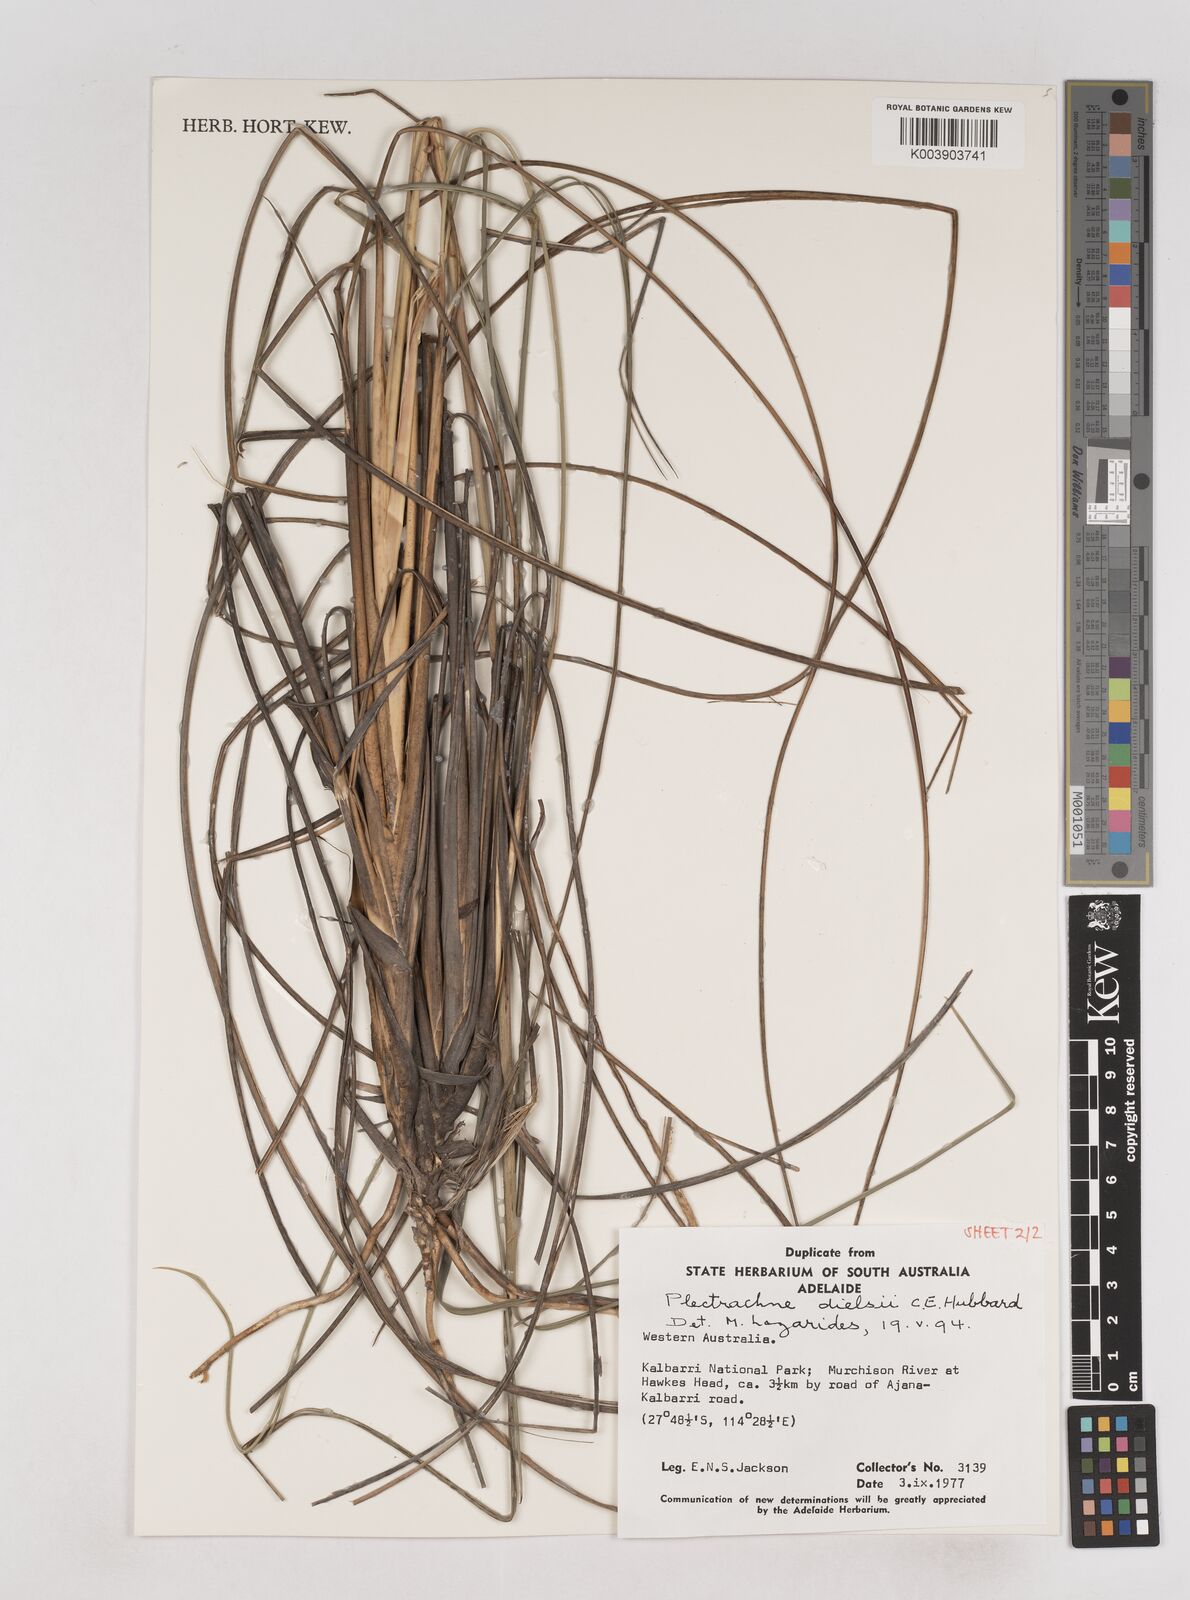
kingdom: Plantae
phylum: Tracheophyta
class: Liliopsida
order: Poales
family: Poaceae
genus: Triodia
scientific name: Triodia dielsii
